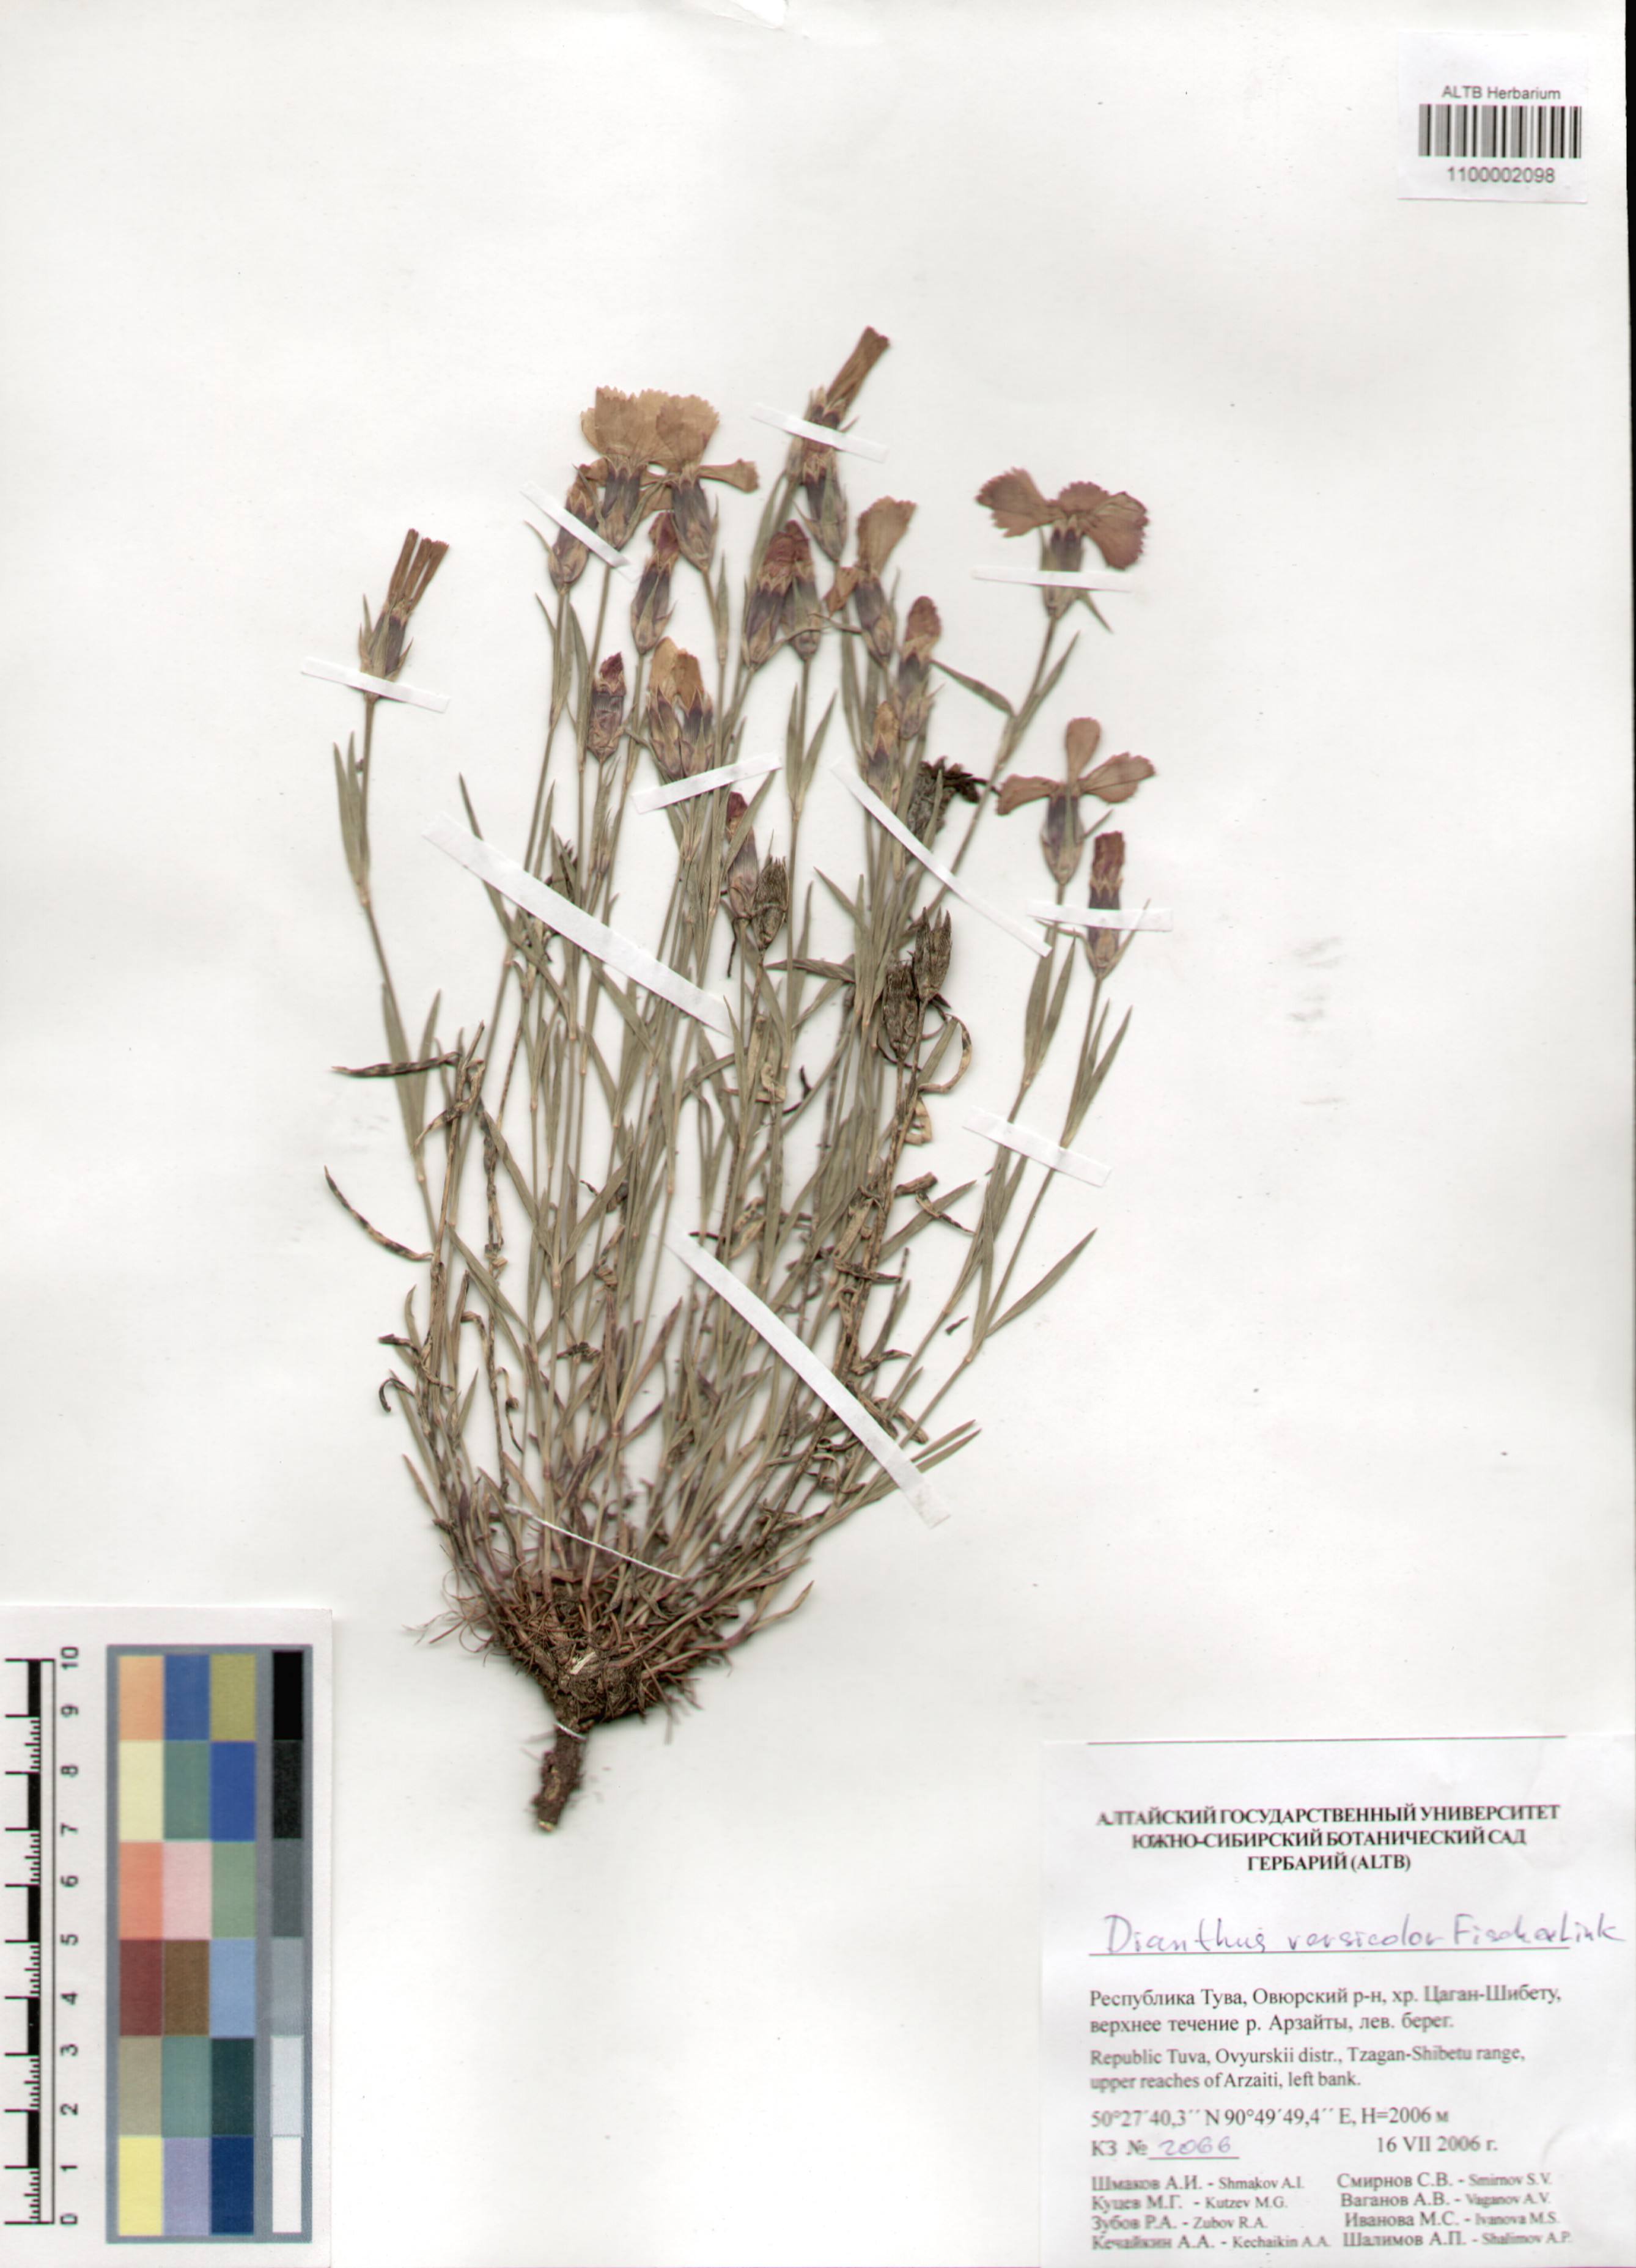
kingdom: Plantae
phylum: Tracheophyta
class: Magnoliopsida
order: Caryophyllales
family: Caryophyllaceae
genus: Dianthus
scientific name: Dianthus chinensis
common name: Rainbow pink
